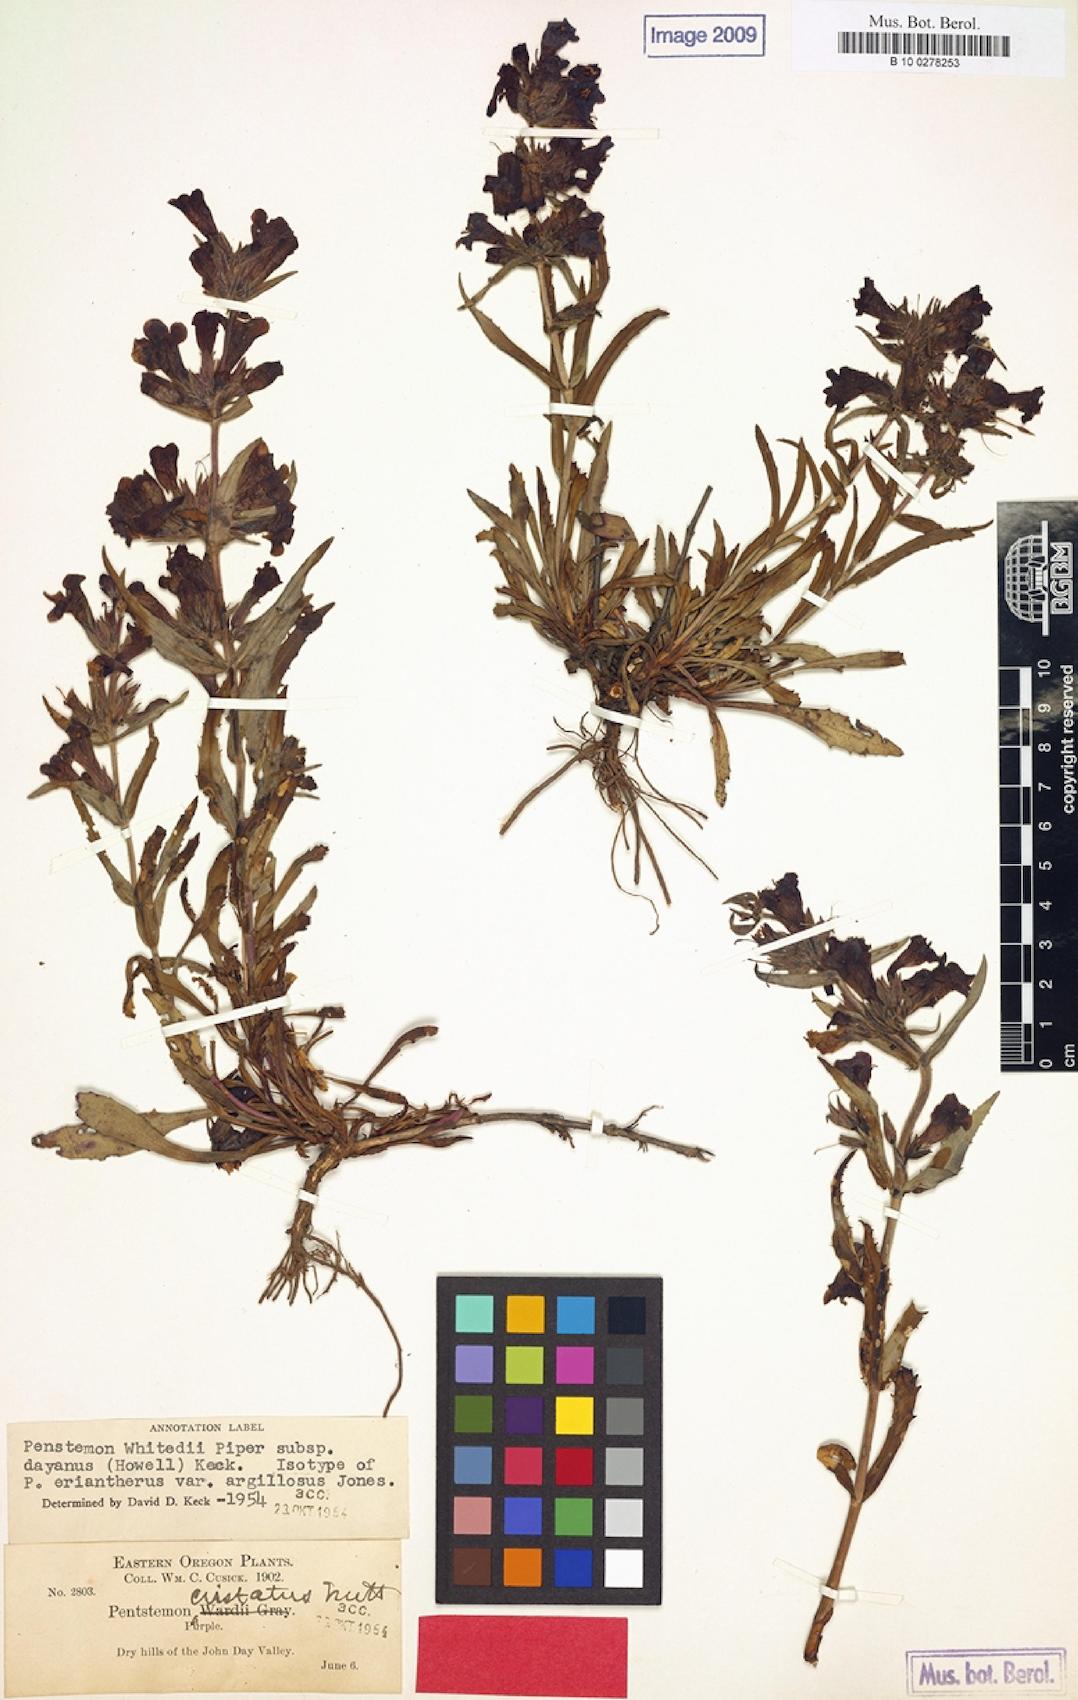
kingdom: Plantae
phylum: Tracheophyta
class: Magnoliopsida
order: Lamiales
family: Plantaginaceae
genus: Penstemon
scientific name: Penstemon eriantherus
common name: Crested beardtongue
